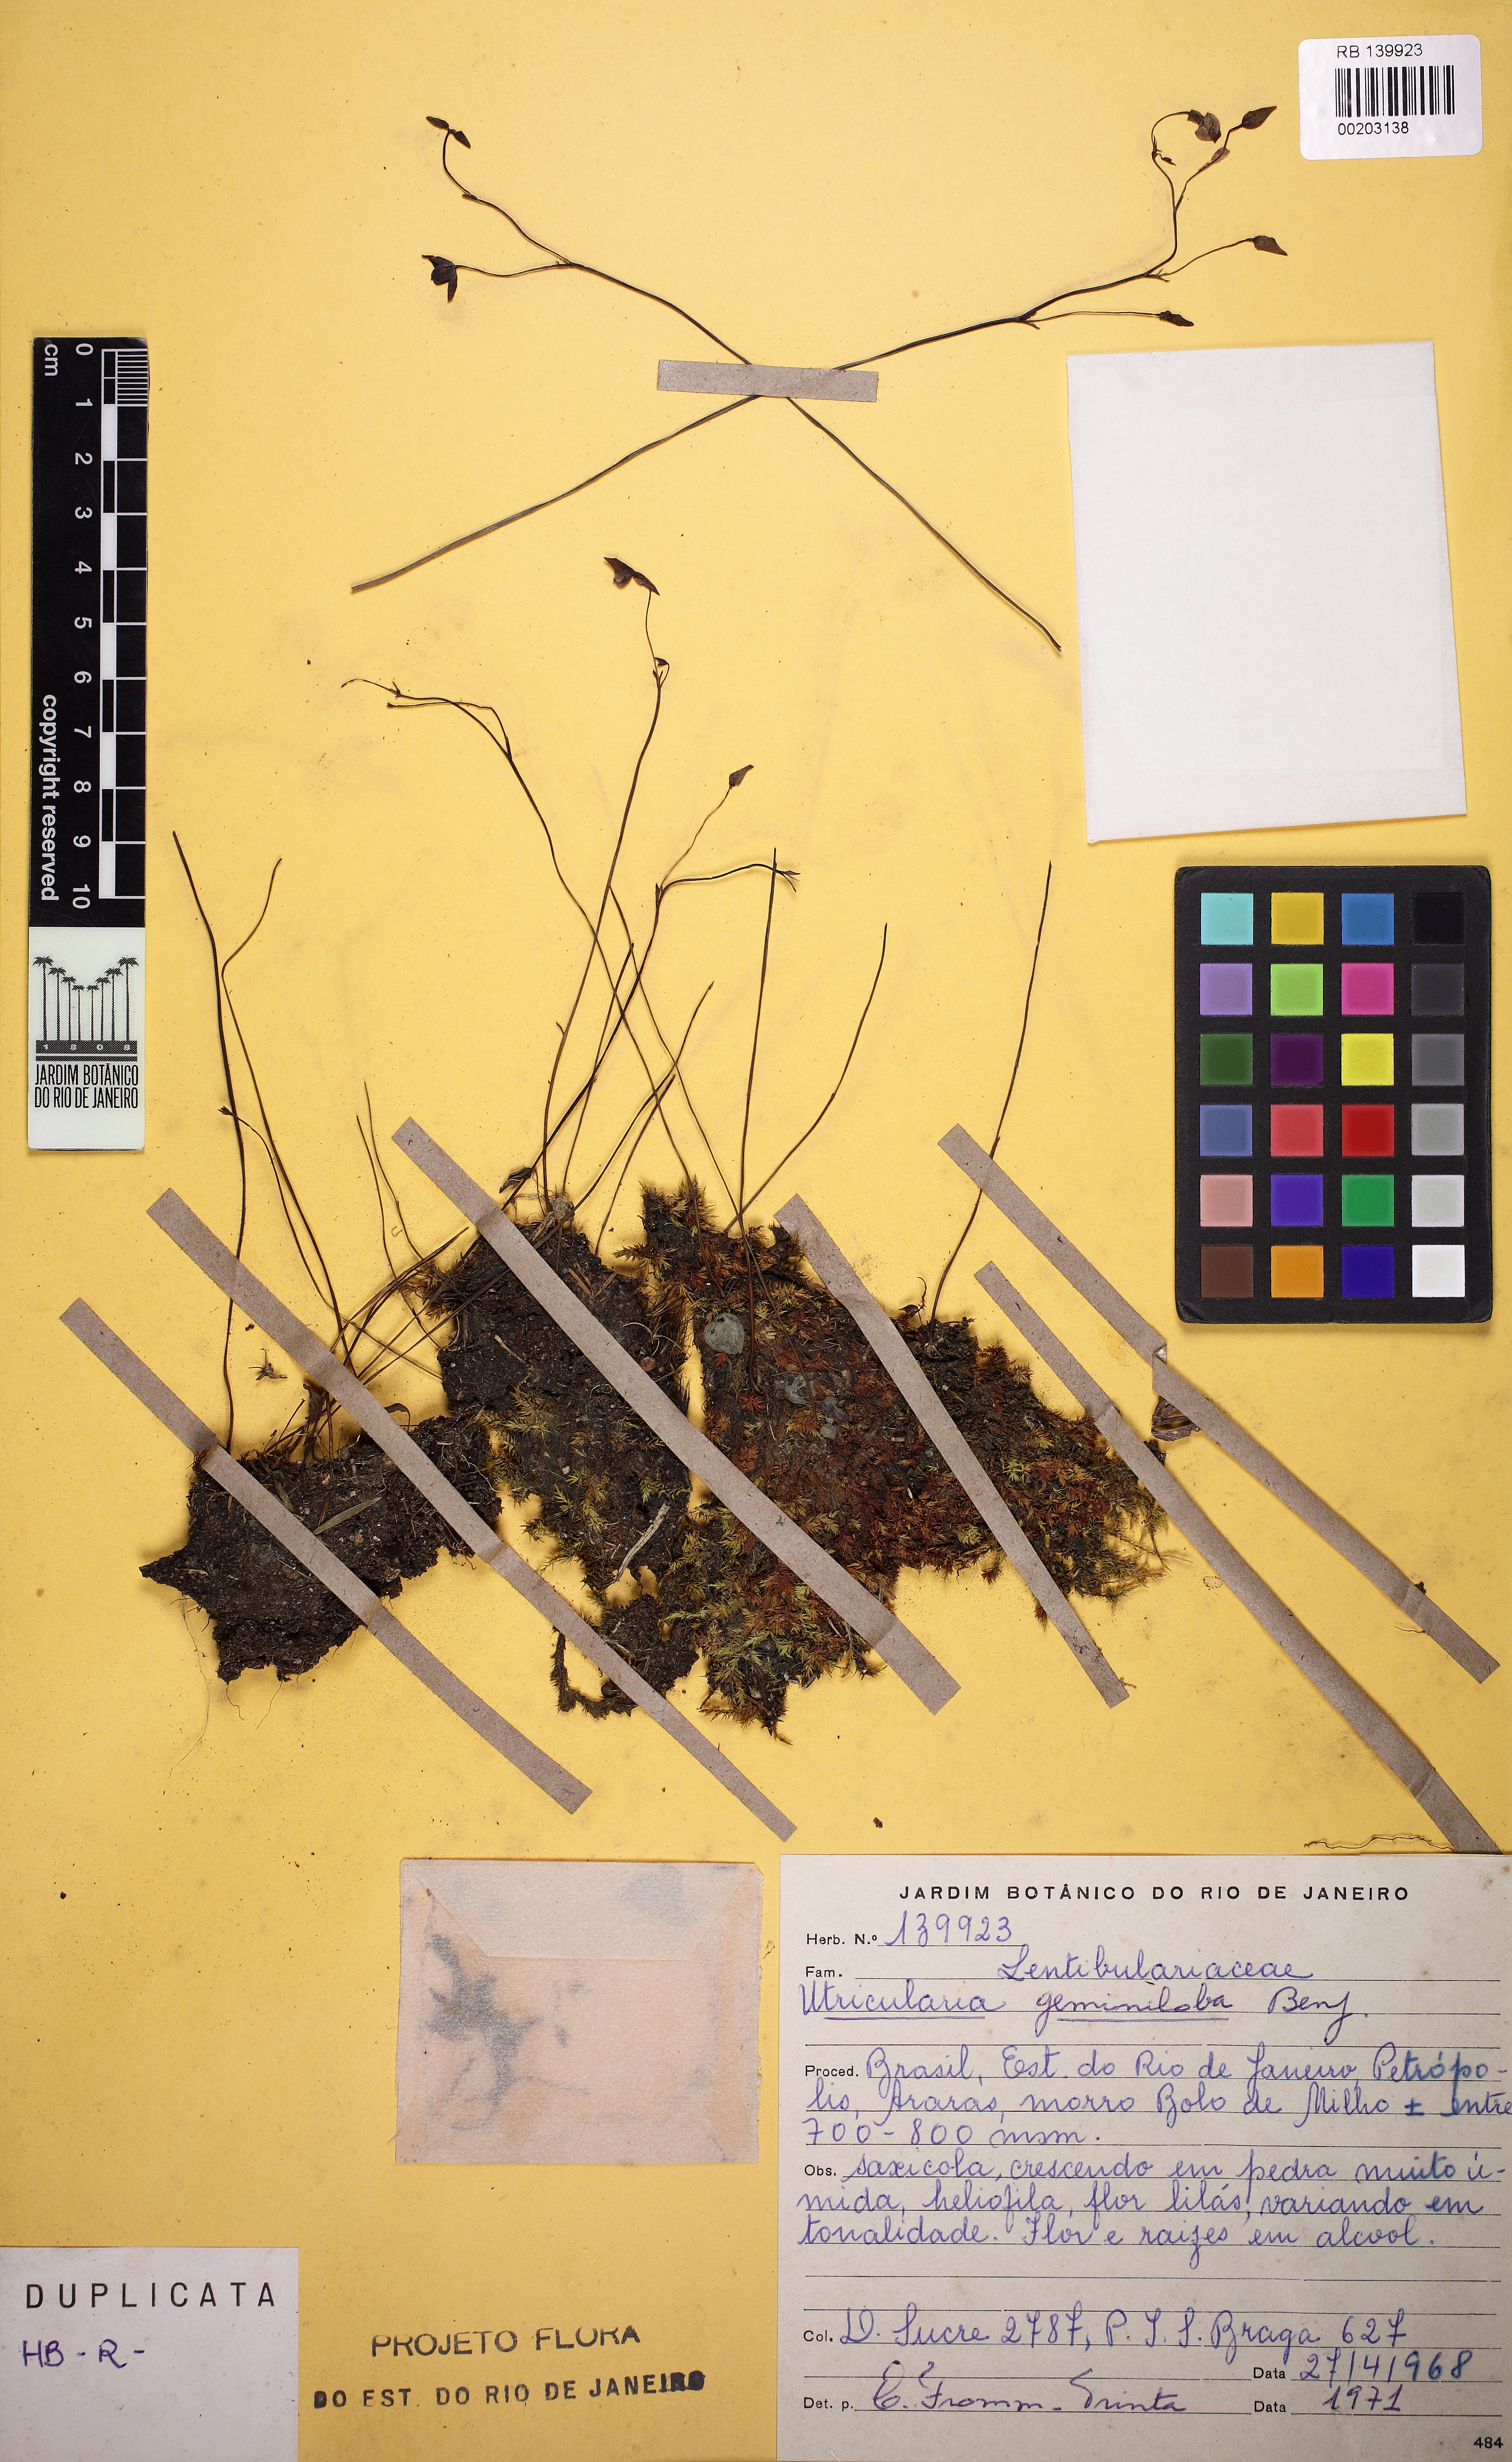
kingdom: Plantae
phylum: Tracheophyta
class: Magnoliopsida
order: Lamiales
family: Lentibulariaceae
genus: Utricularia
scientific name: Utricularia geminiloba
